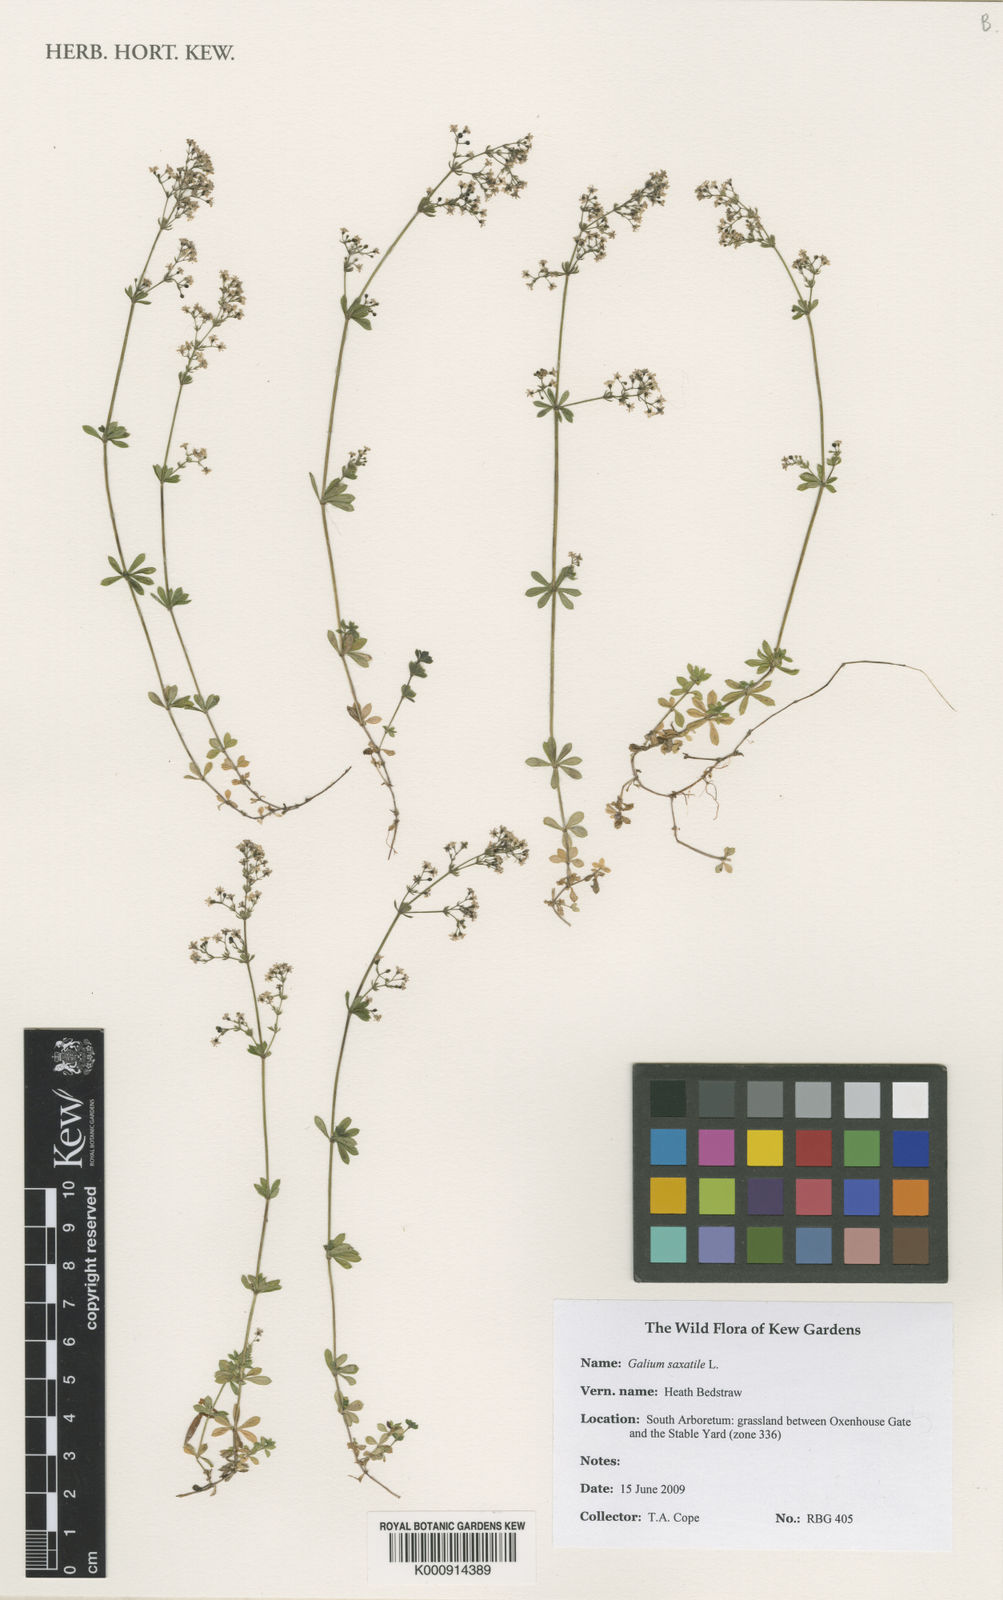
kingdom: Plantae
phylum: Tracheophyta
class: Magnoliopsida
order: Gentianales
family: Rubiaceae
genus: Galium
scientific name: Galium saxatile
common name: Heath bedstraw
